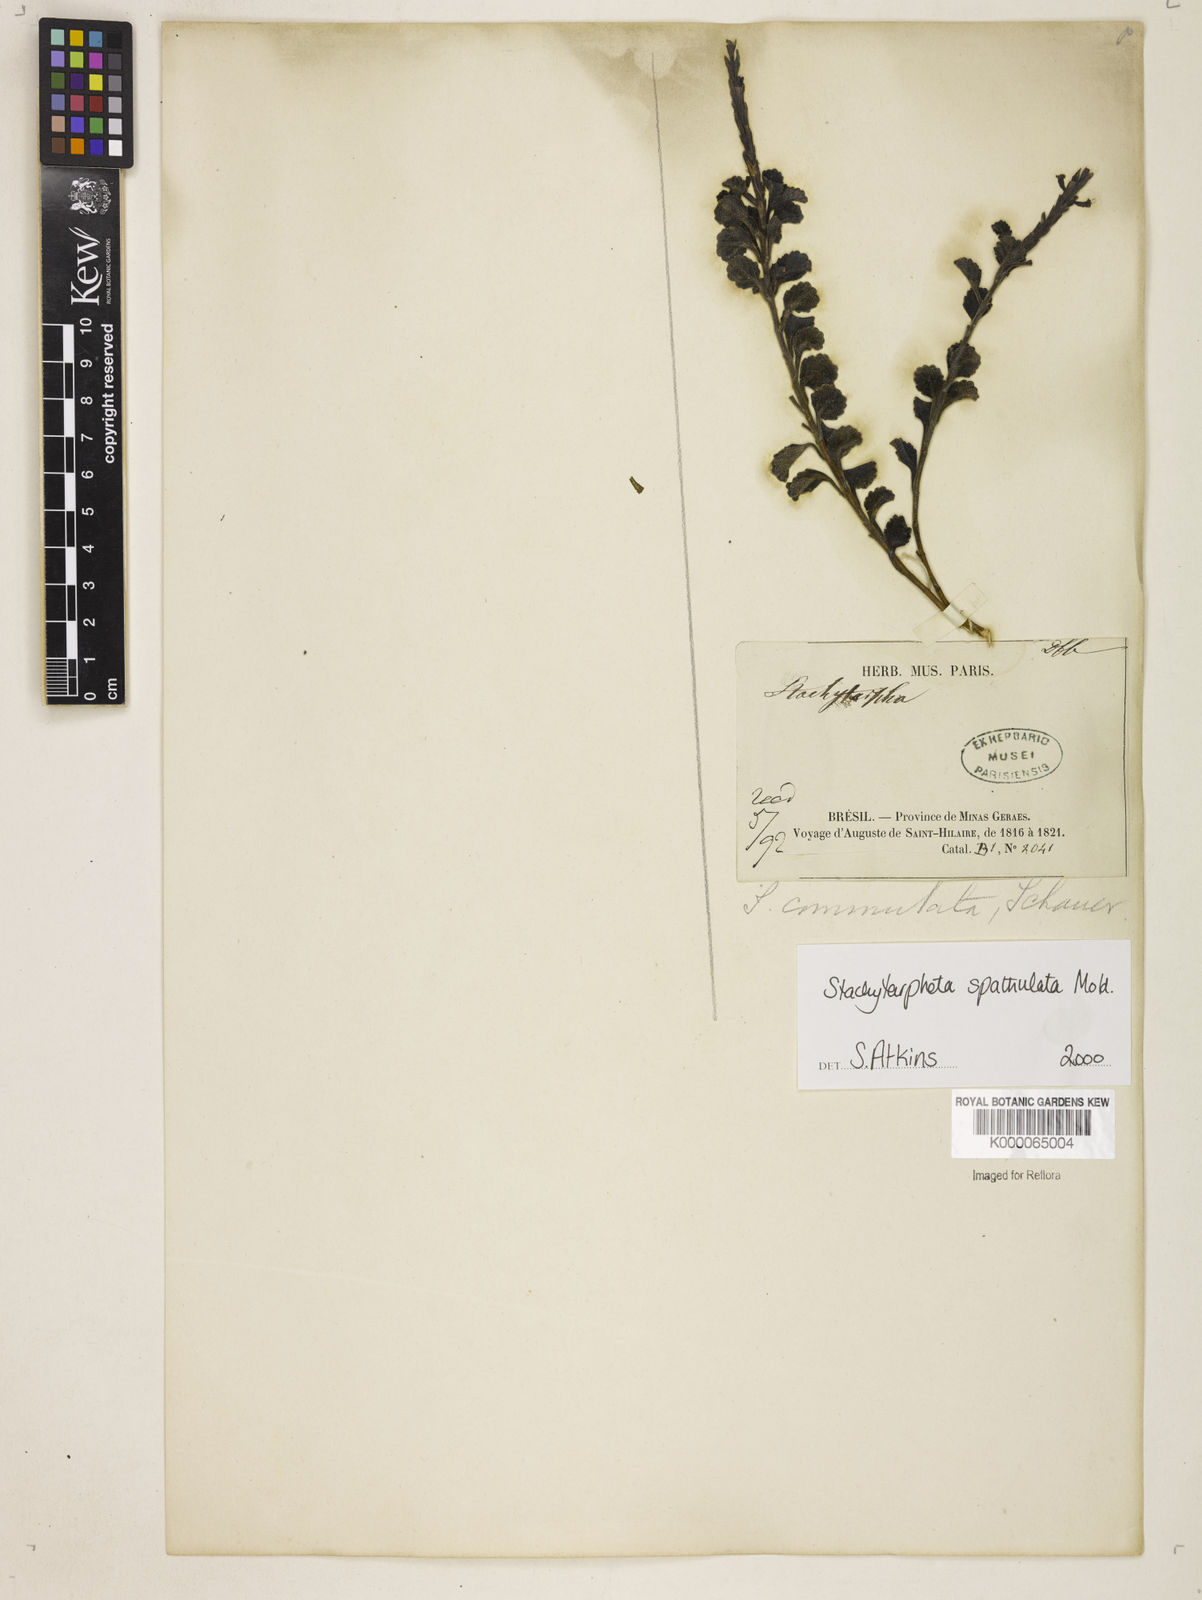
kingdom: Plantae
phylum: Tracheophyta
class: Magnoliopsida
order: Lamiales
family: Verbenaceae
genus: Stachytarpheta
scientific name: Stachytarpheta spathulata
